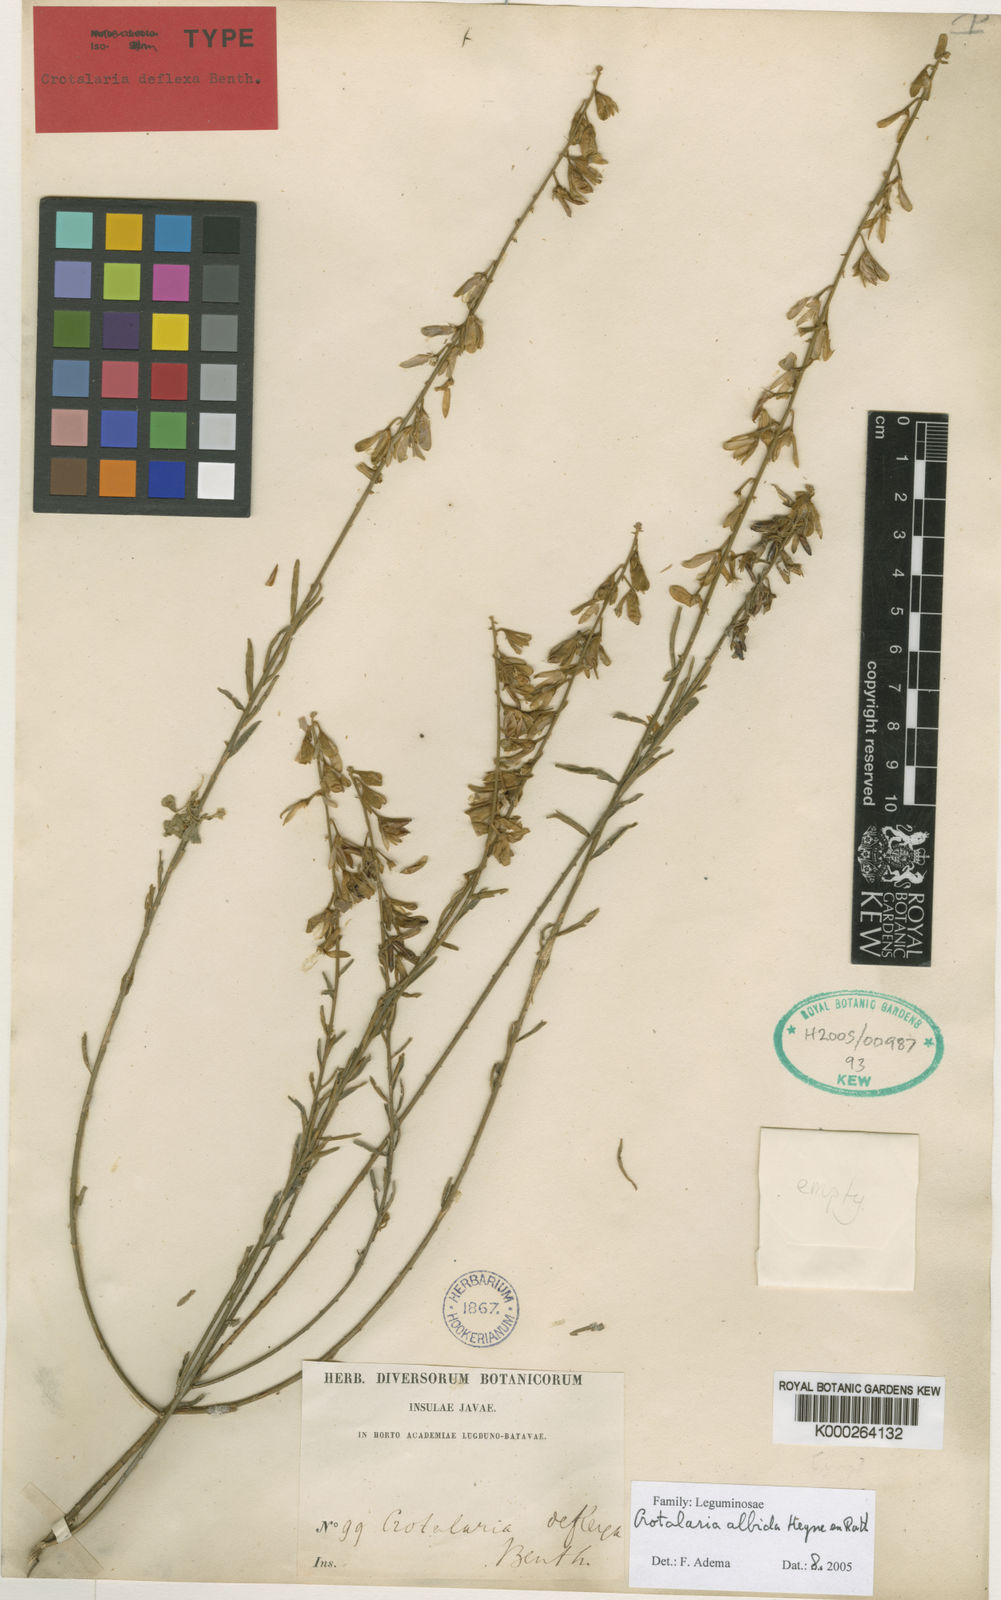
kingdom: Plantae
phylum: Tracheophyta
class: Magnoliopsida
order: Fabales
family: Fabaceae
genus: Crotalaria
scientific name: Crotalaria albida
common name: Taiwan crotalaria
